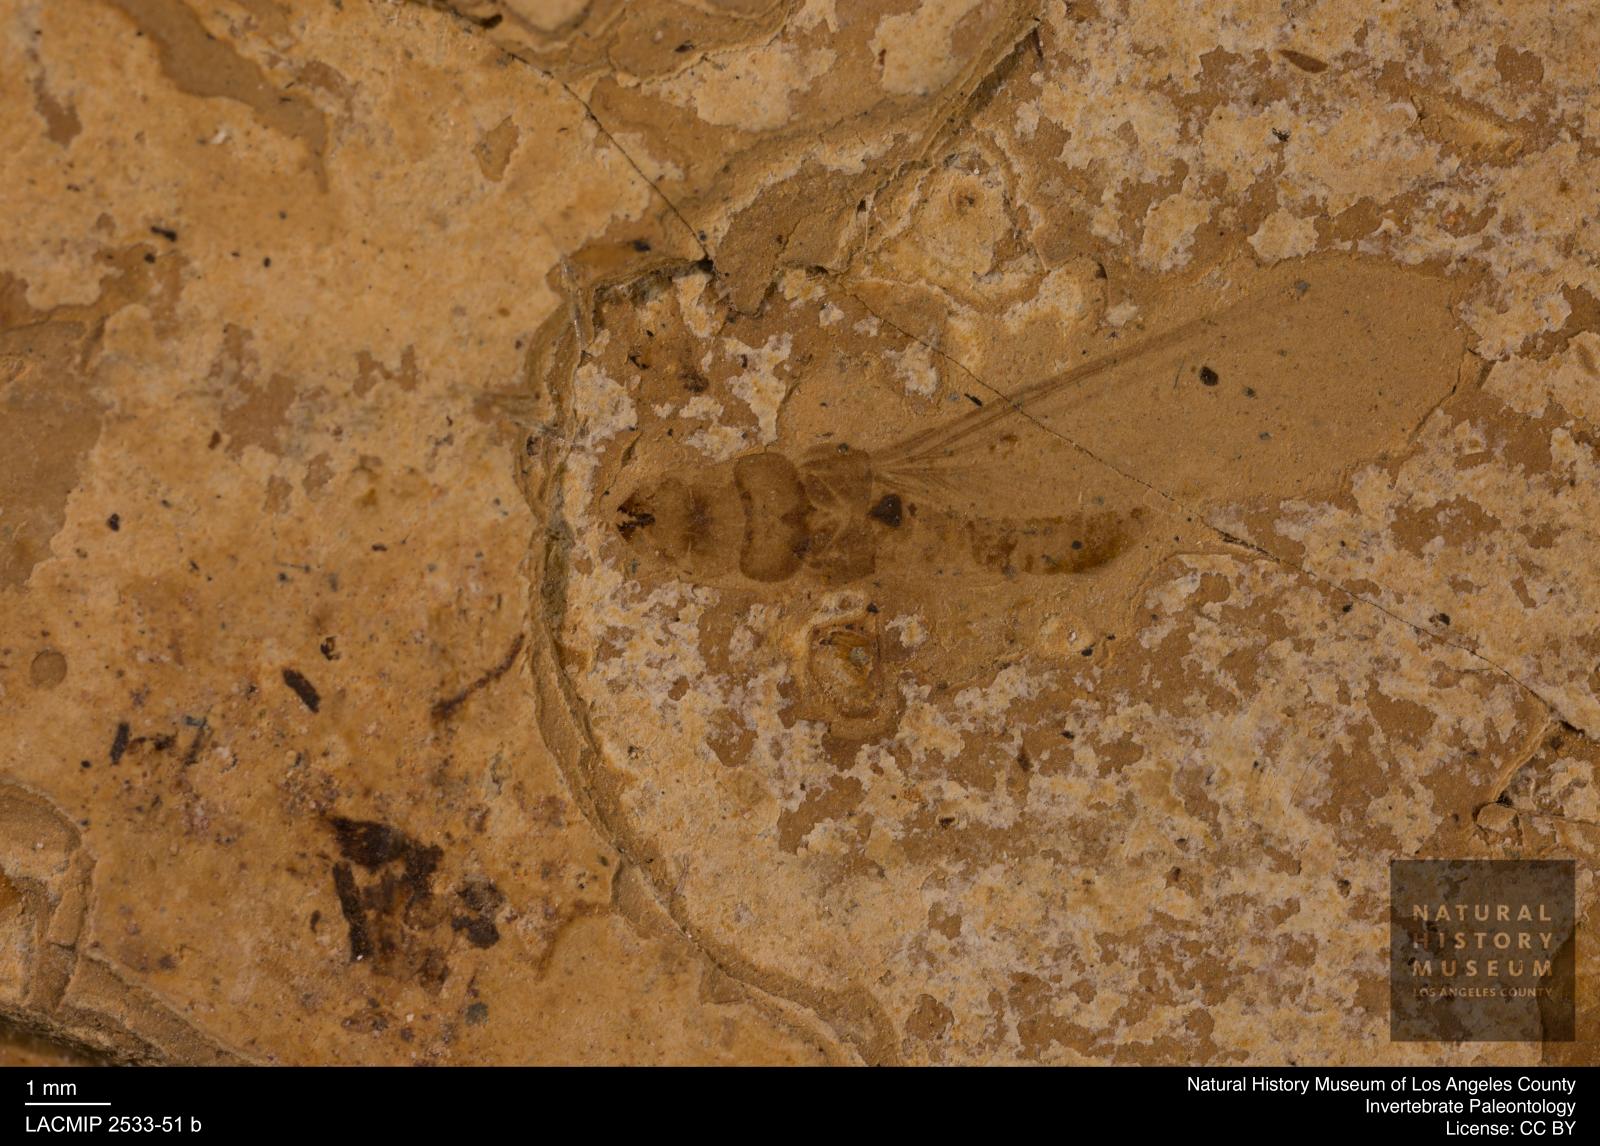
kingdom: Animalia
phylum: Arthropoda
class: Insecta
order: Blattodea
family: Kalotermitidae
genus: Kalotermes
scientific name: Kalotermes rhenanus
